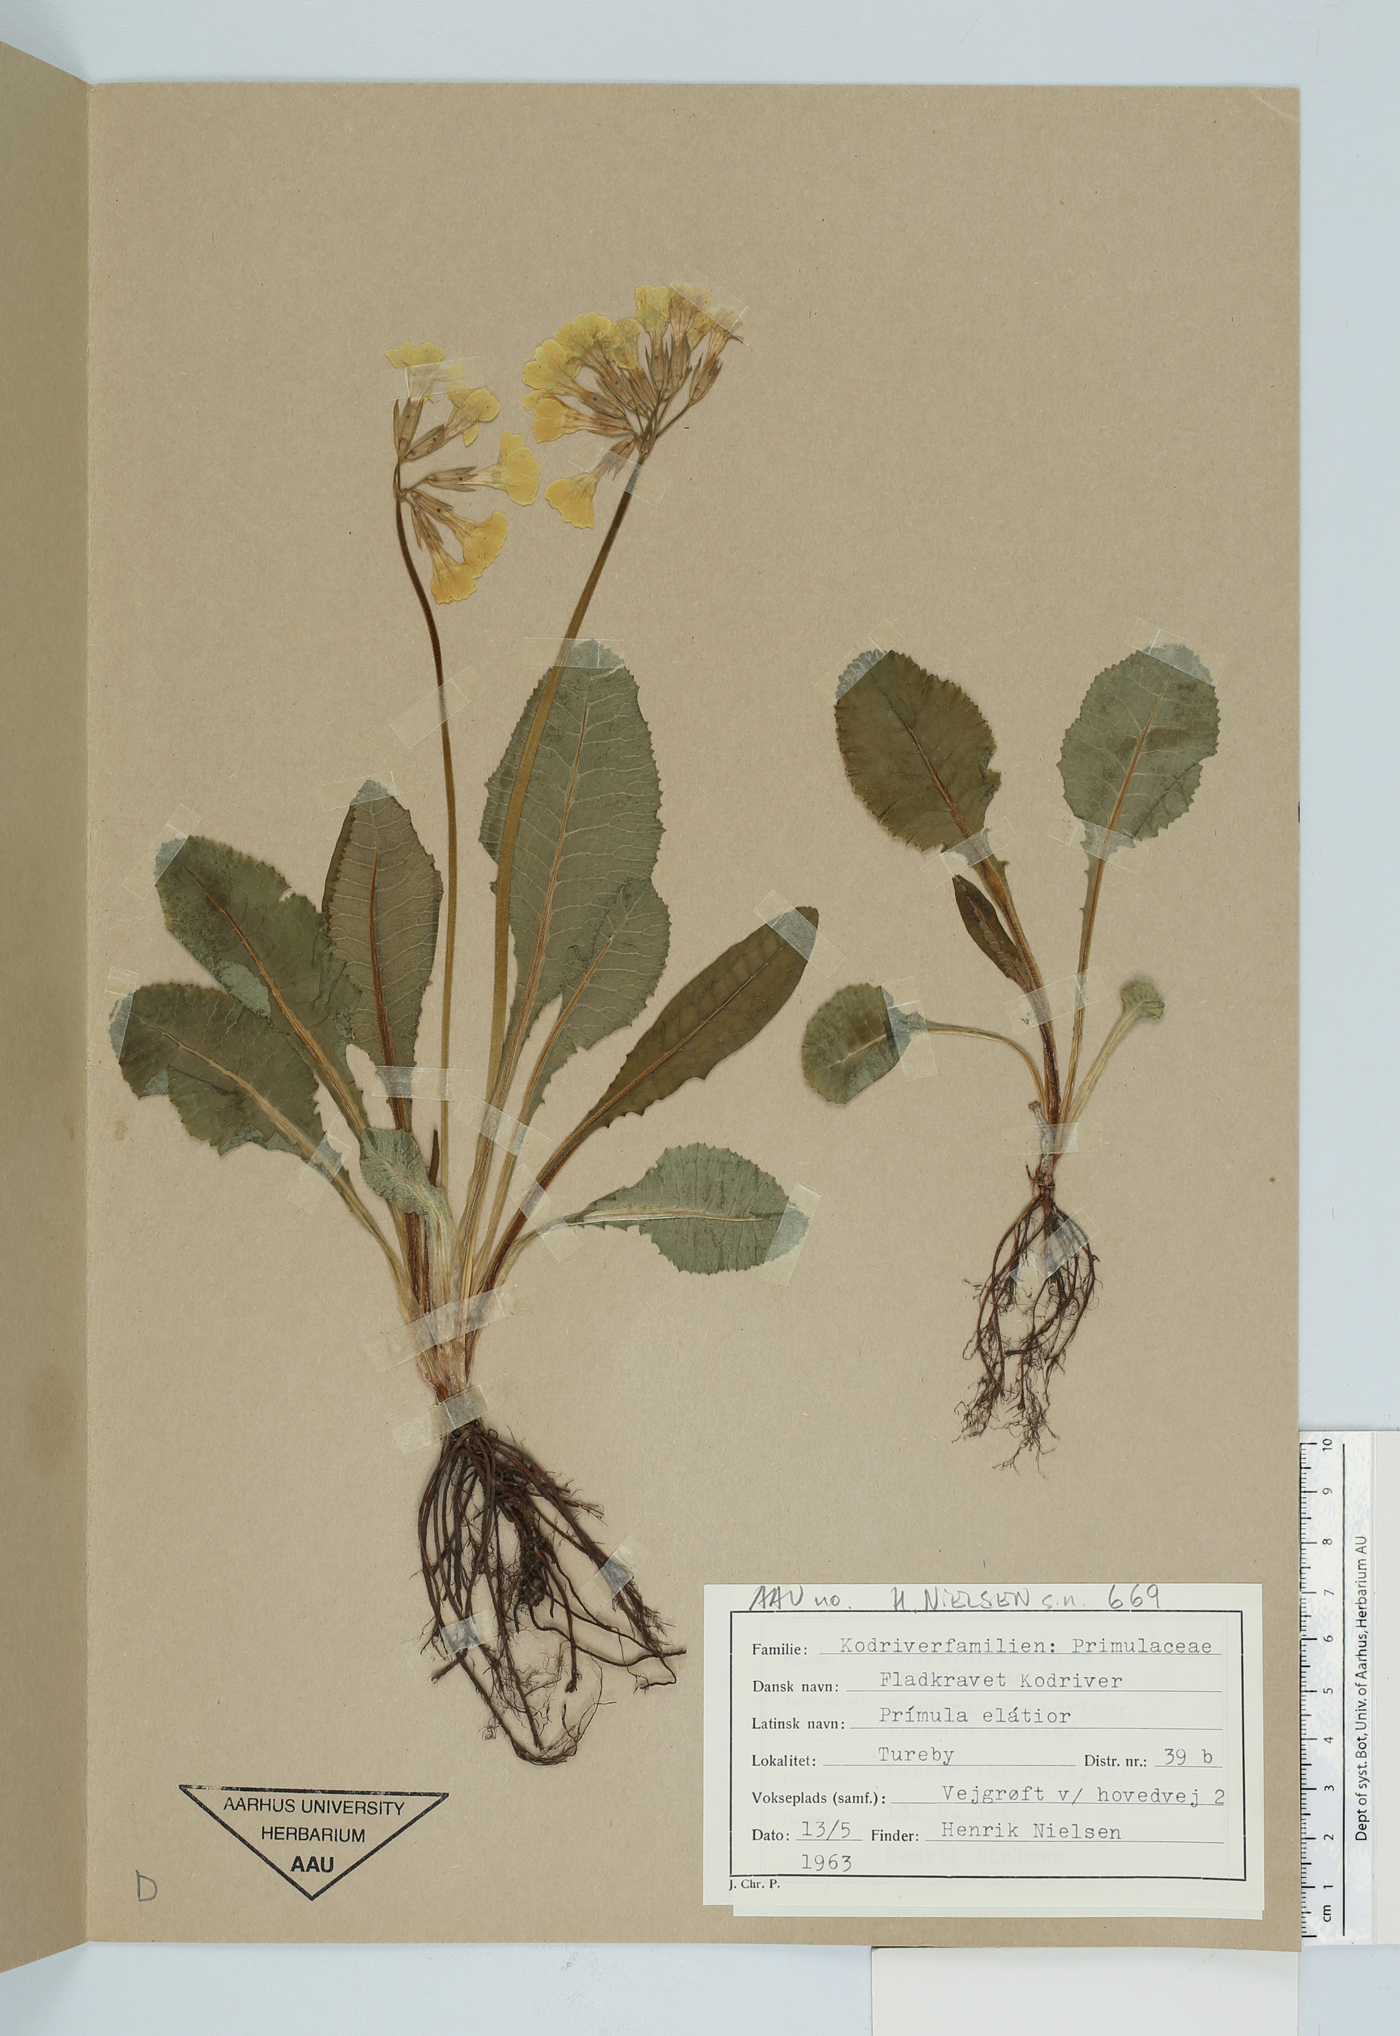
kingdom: Plantae
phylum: Tracheophyta
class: Magnoliopsida
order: Ericales
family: Primulaceae
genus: Primula
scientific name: Primula elatior
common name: Oxlip
